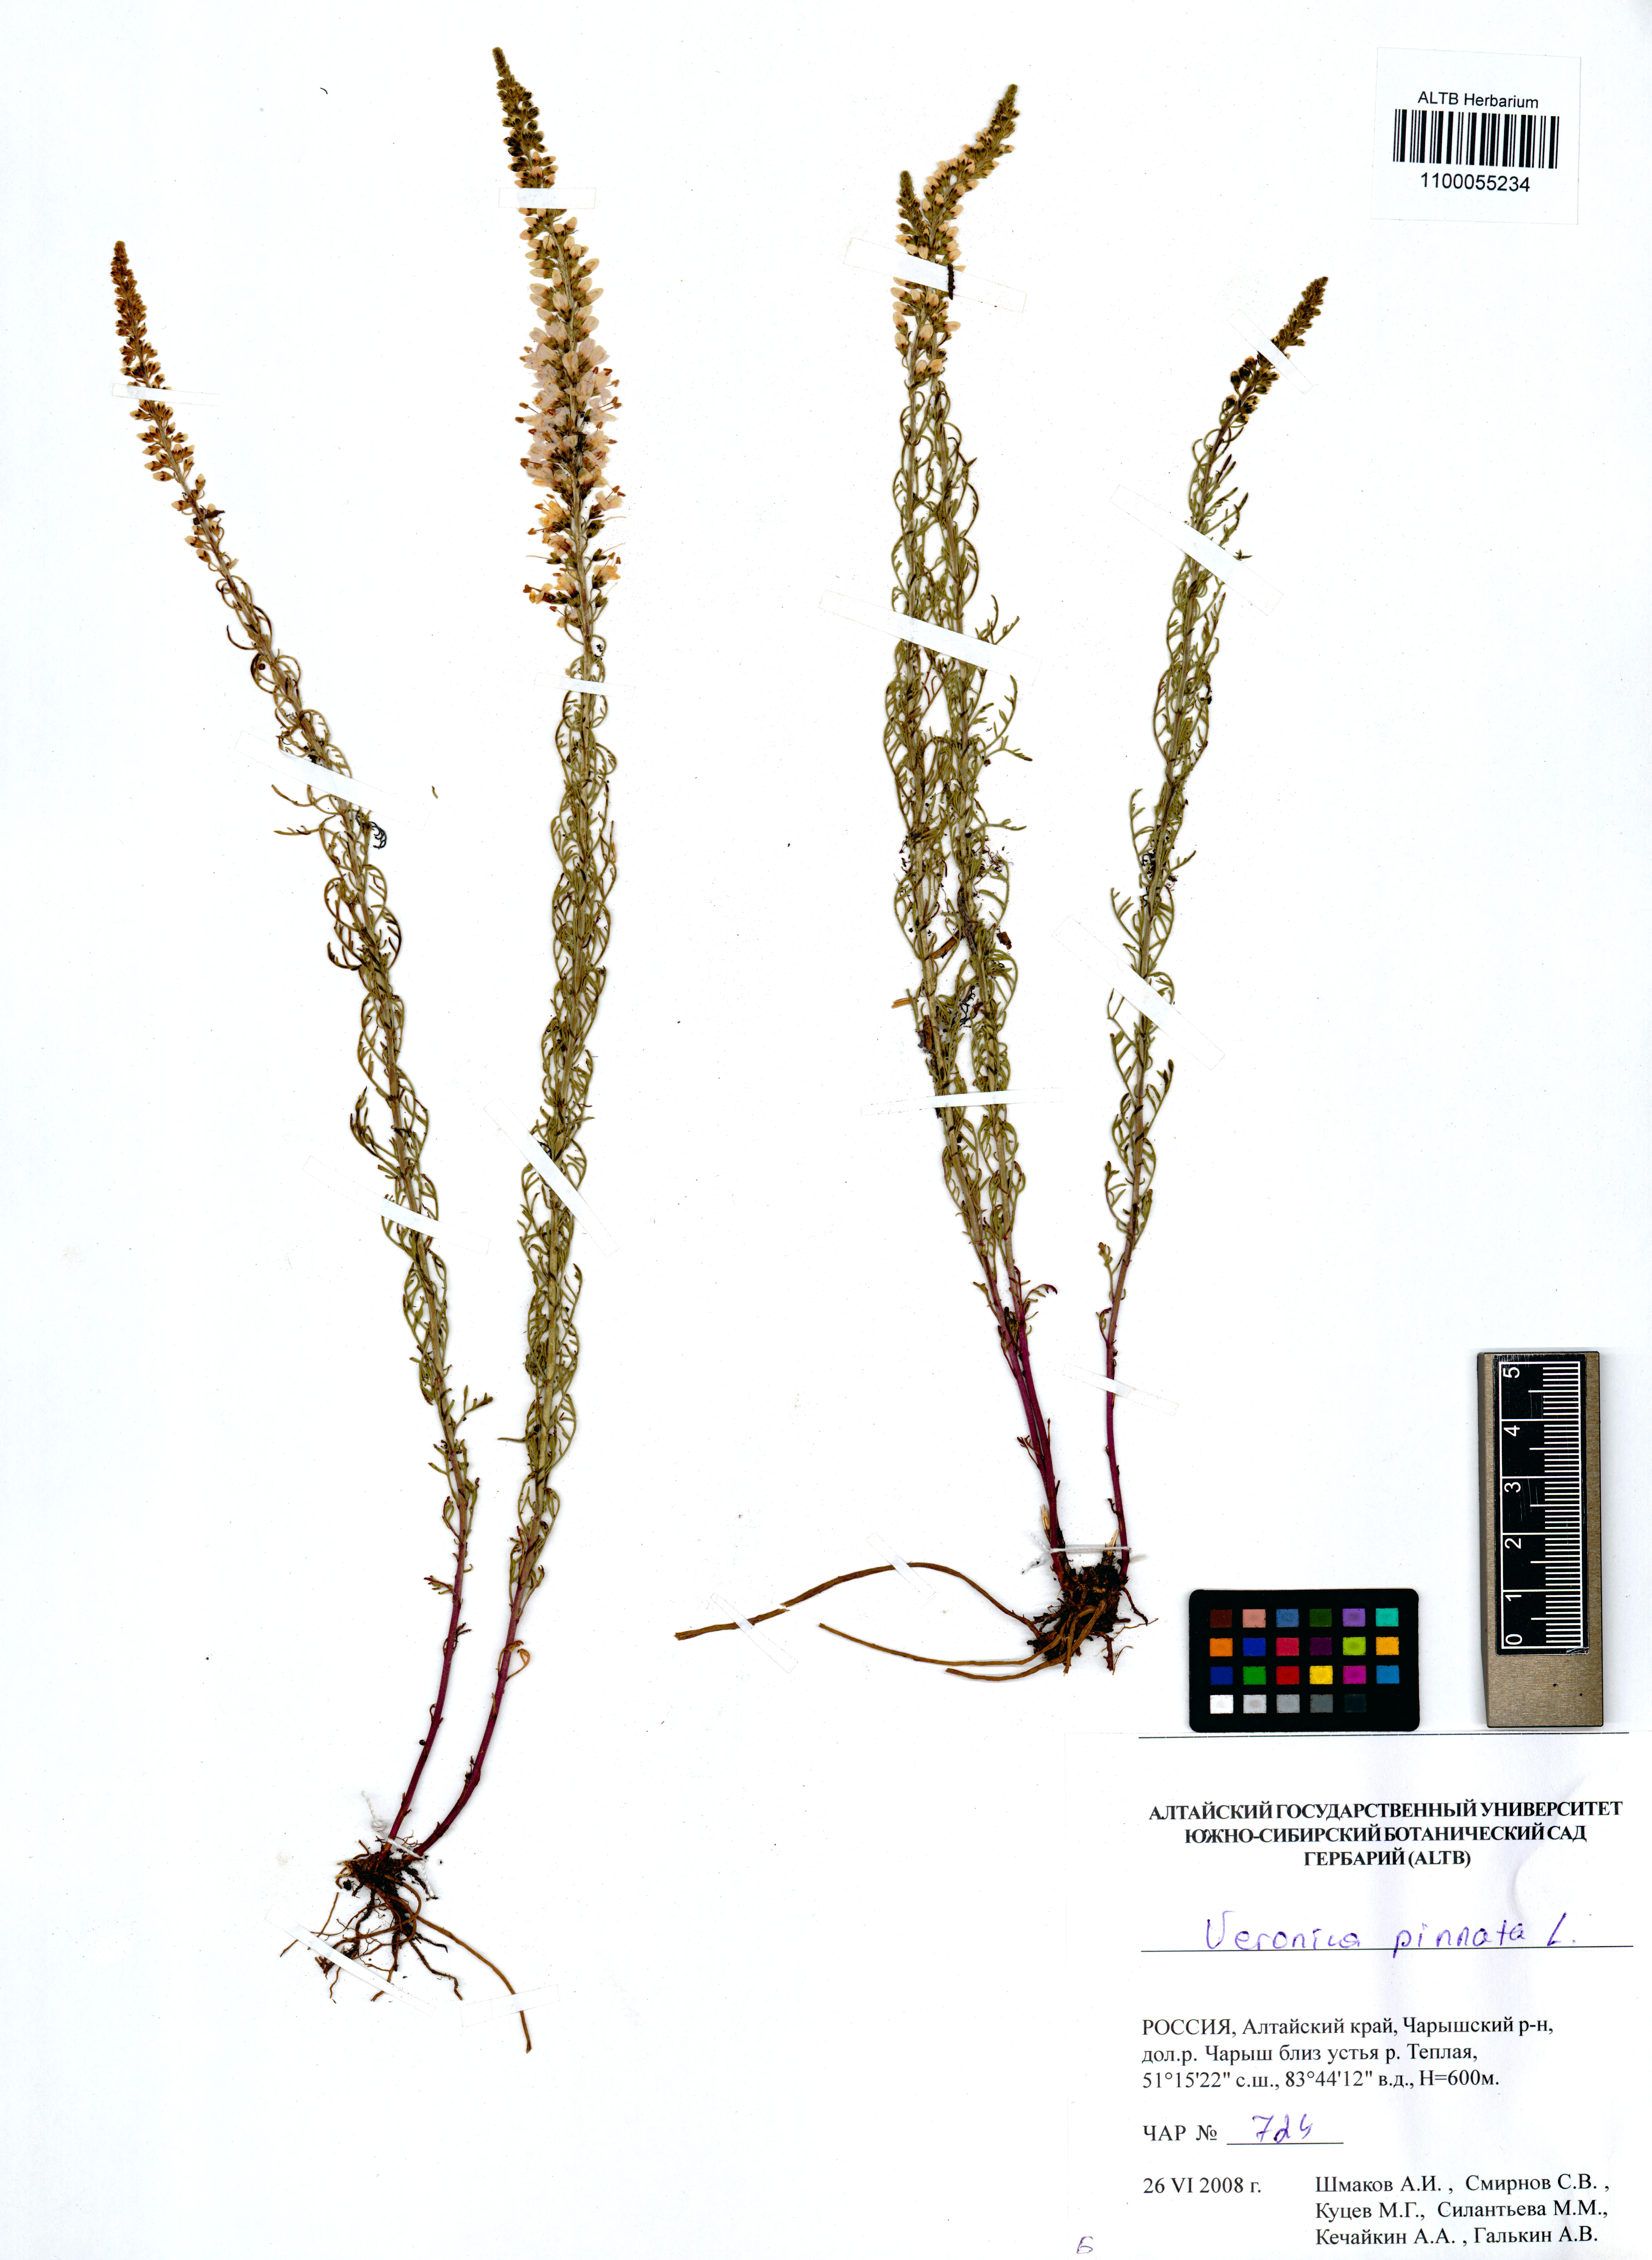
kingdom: Plantae
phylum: Tracheophyta
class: Magnoliopsida
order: Lamiales
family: Plantaginaceae
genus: Veronica
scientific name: Veronica pinnata
